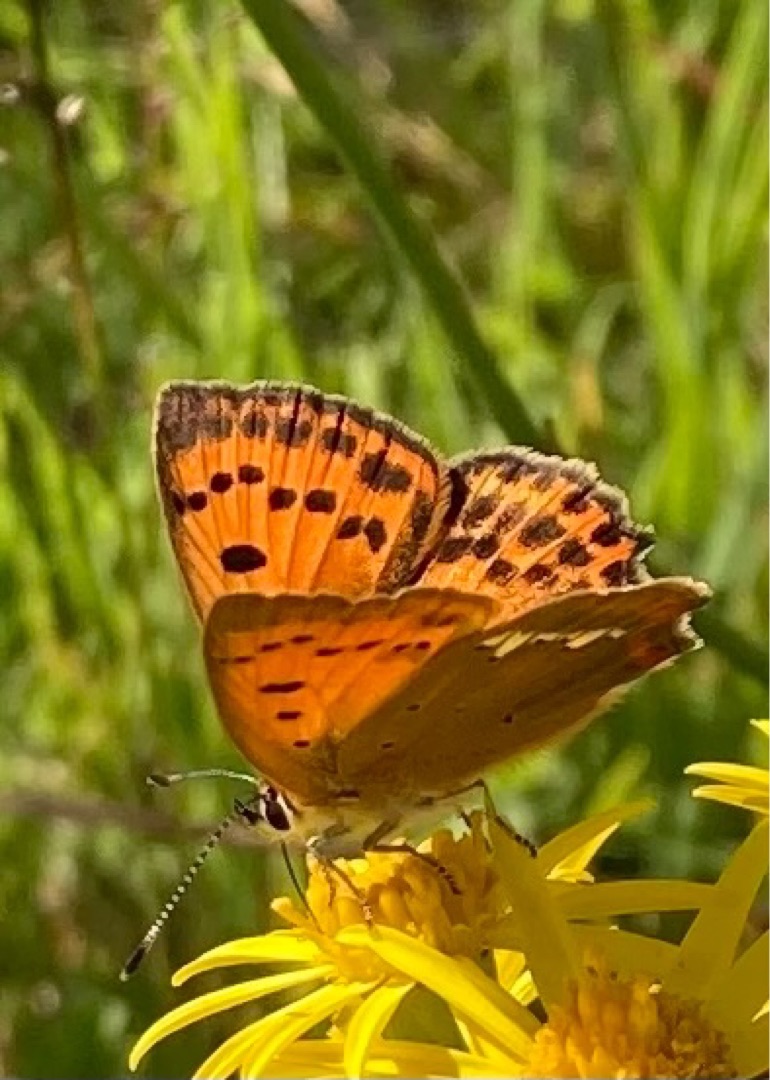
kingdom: Animalia
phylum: Arthropoda
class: Insecta
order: Lepidoptera
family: Lycaenidae
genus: Lycaena
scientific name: Lycaena virgaureae
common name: Dukatsommerfugl
